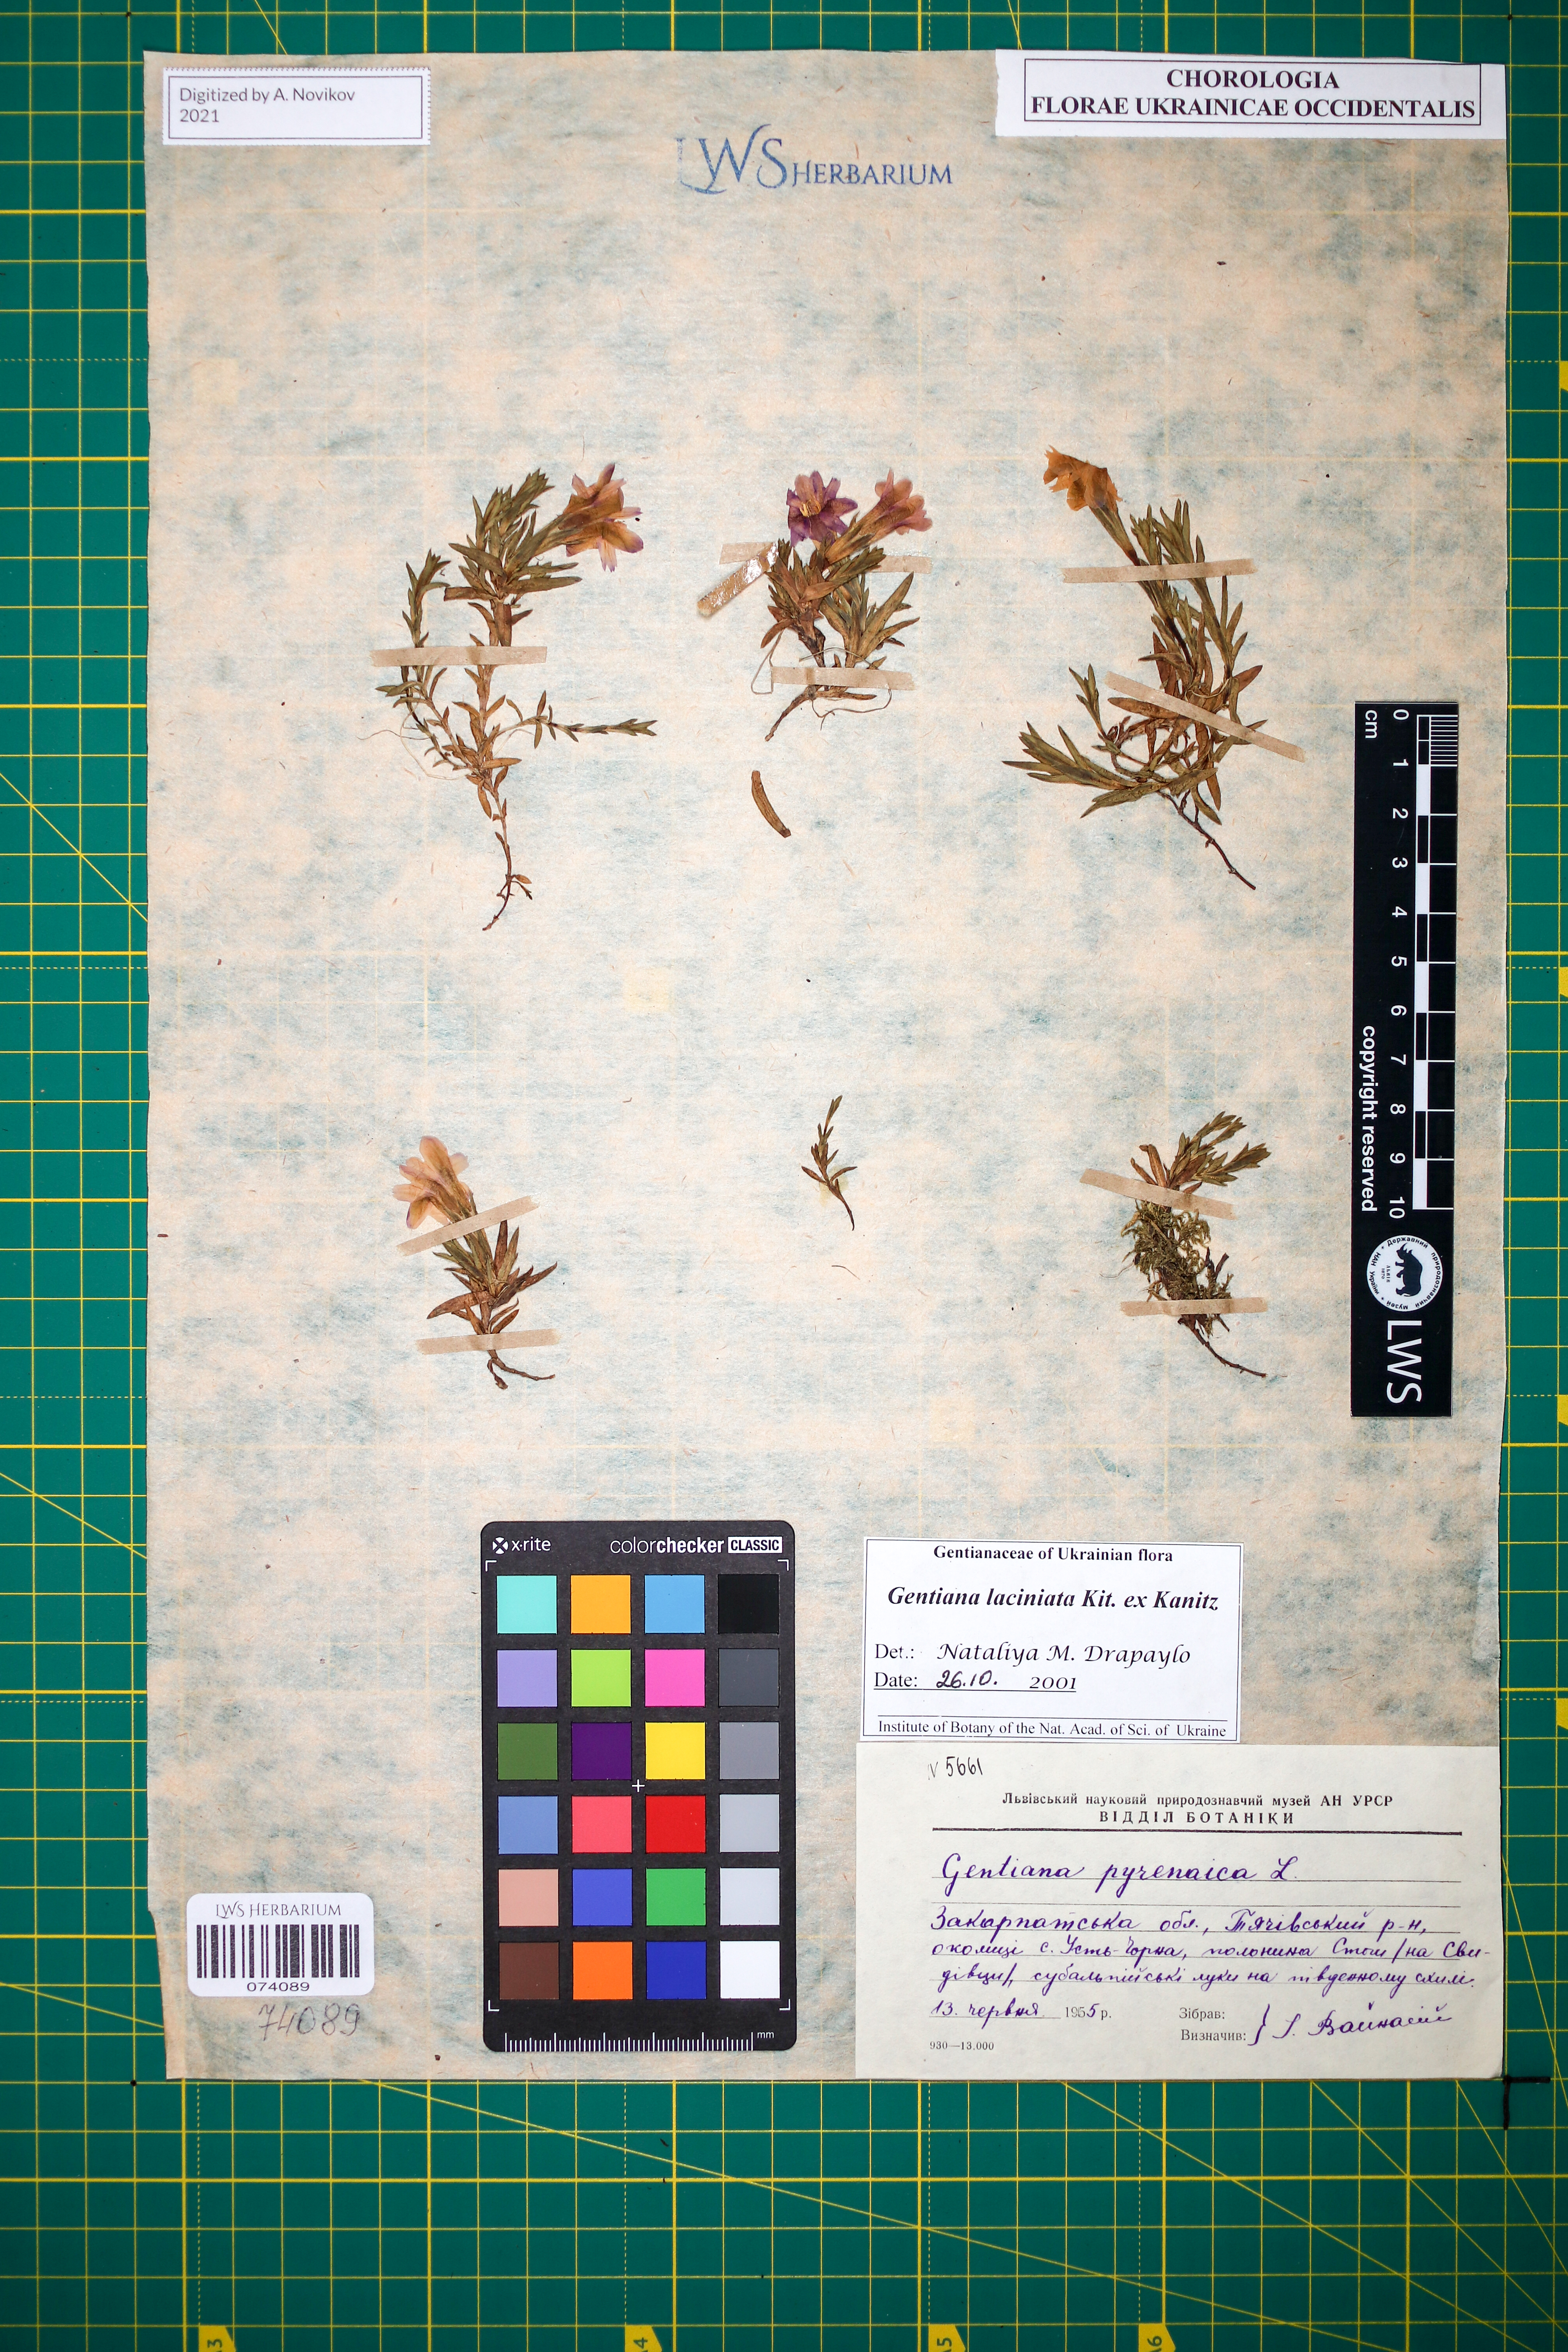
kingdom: Plantae
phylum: Tracheophyta
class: Magnoliopsida
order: Gentianales
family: Gentianaceae
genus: Gentiana
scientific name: Gentiana laciniata
